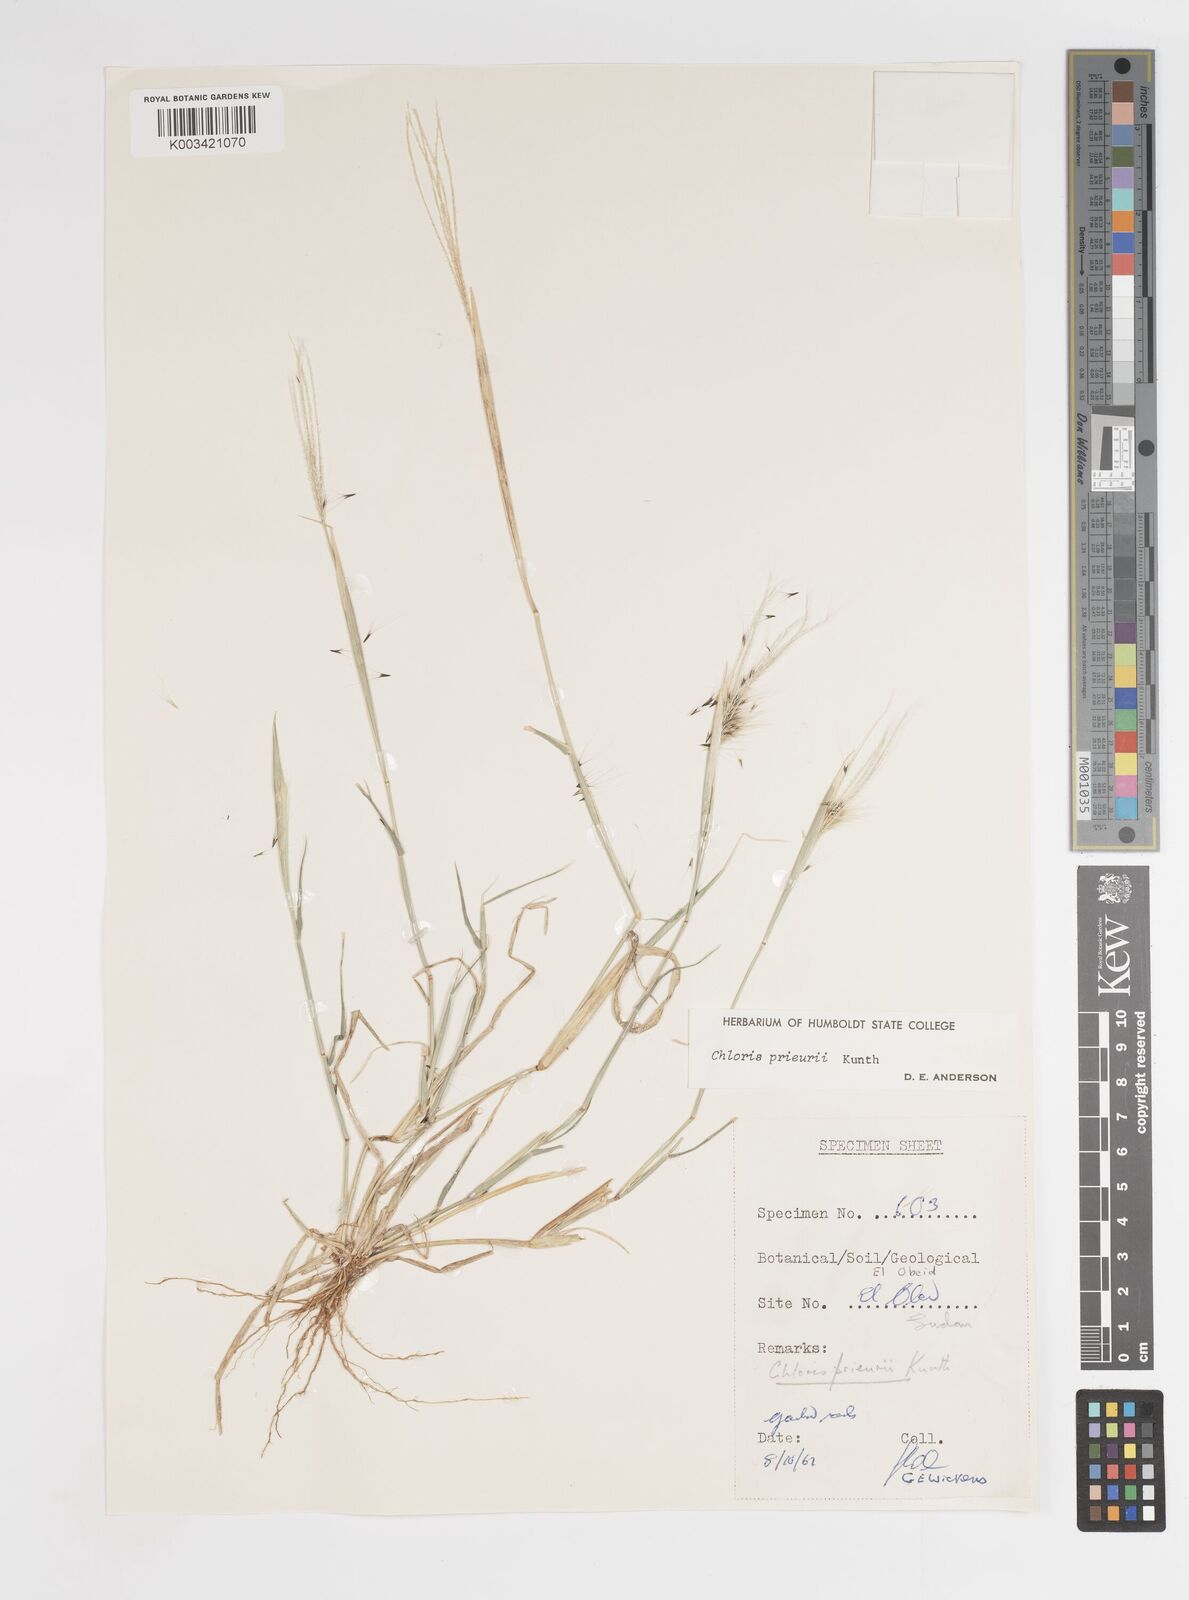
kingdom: Plantae
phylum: Tracheophyta
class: Liliopsida
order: Poales
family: Poaceae
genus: Enteropogon
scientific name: Enteropogon prieurii
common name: Prieur's umbrellagrass
